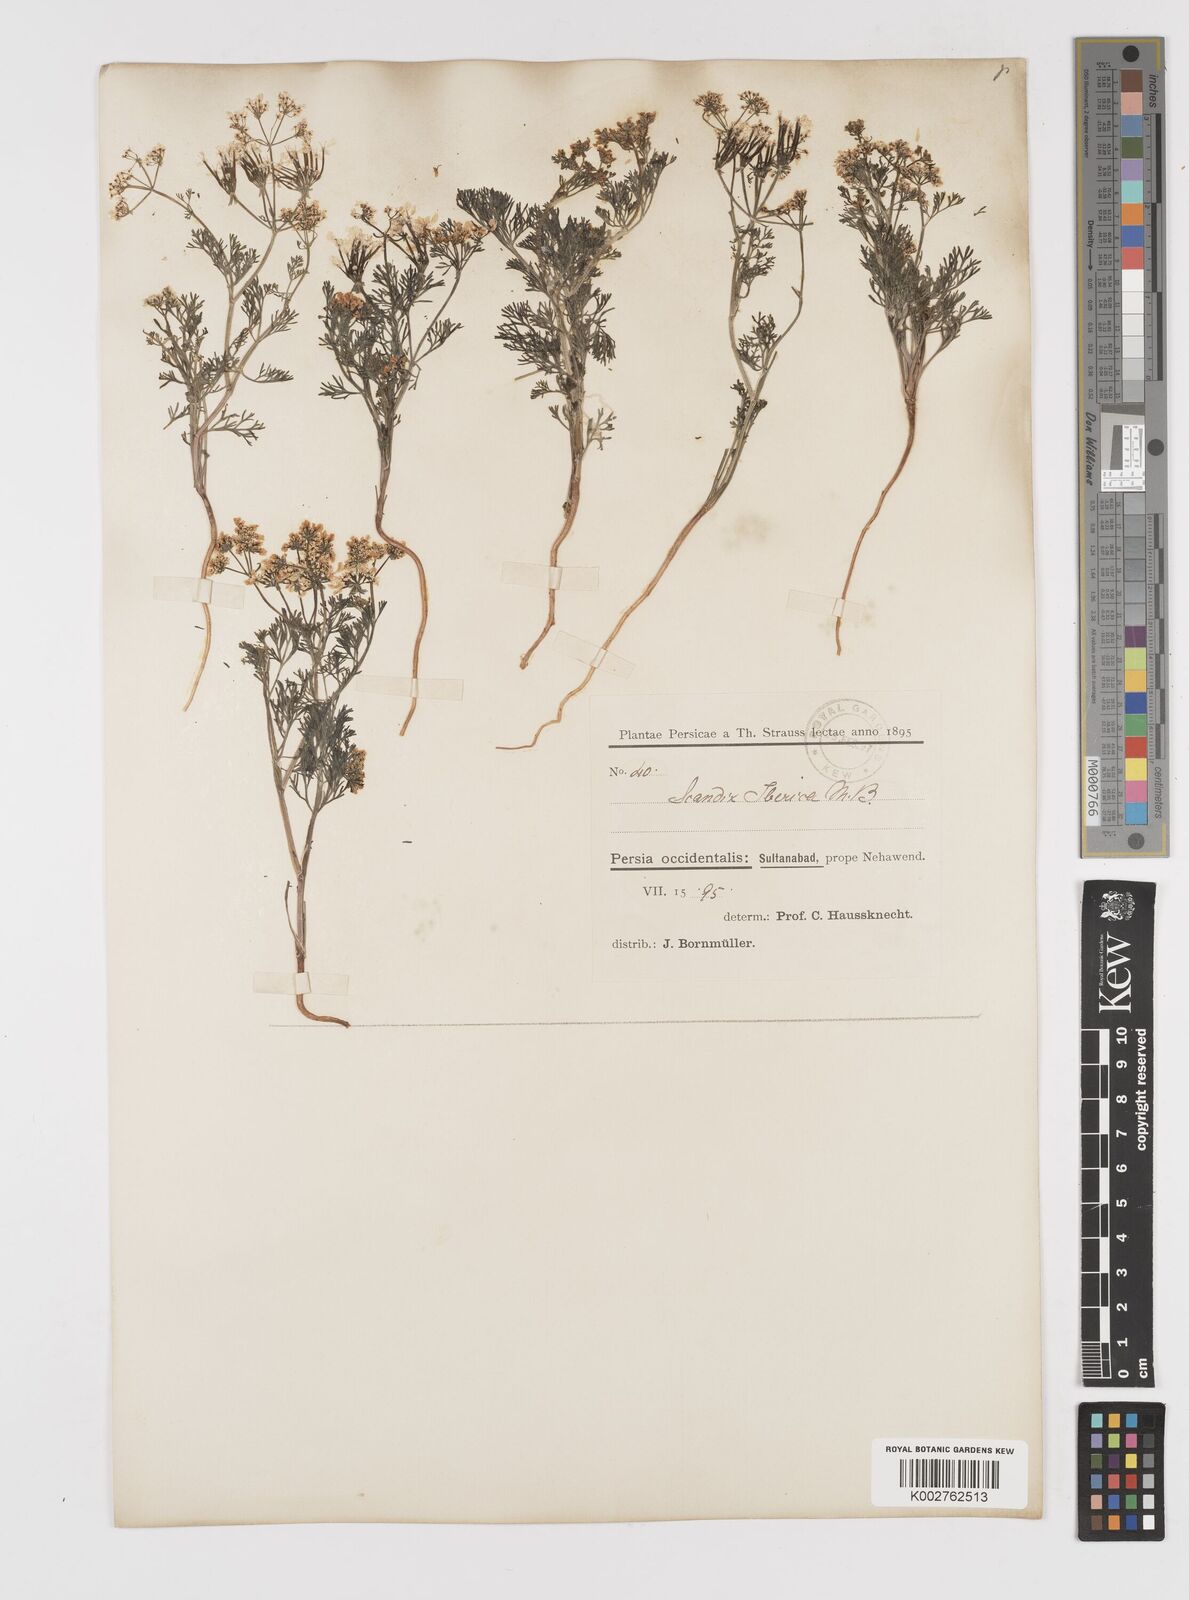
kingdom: Plantae
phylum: Tracheophyta
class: Magnoliopsida
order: Apiales
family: Apiaceae
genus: Scandix
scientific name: Scandix iberica
